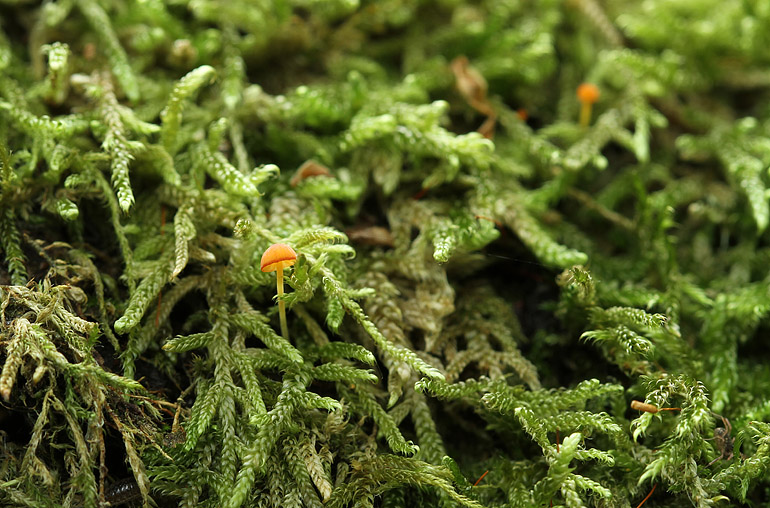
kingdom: Fungi
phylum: Basidiomycota
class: Agaricomycetes
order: Agaricales
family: Mycenaceae
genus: Mycena
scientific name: Mycena acicula
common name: orange huesvamp
